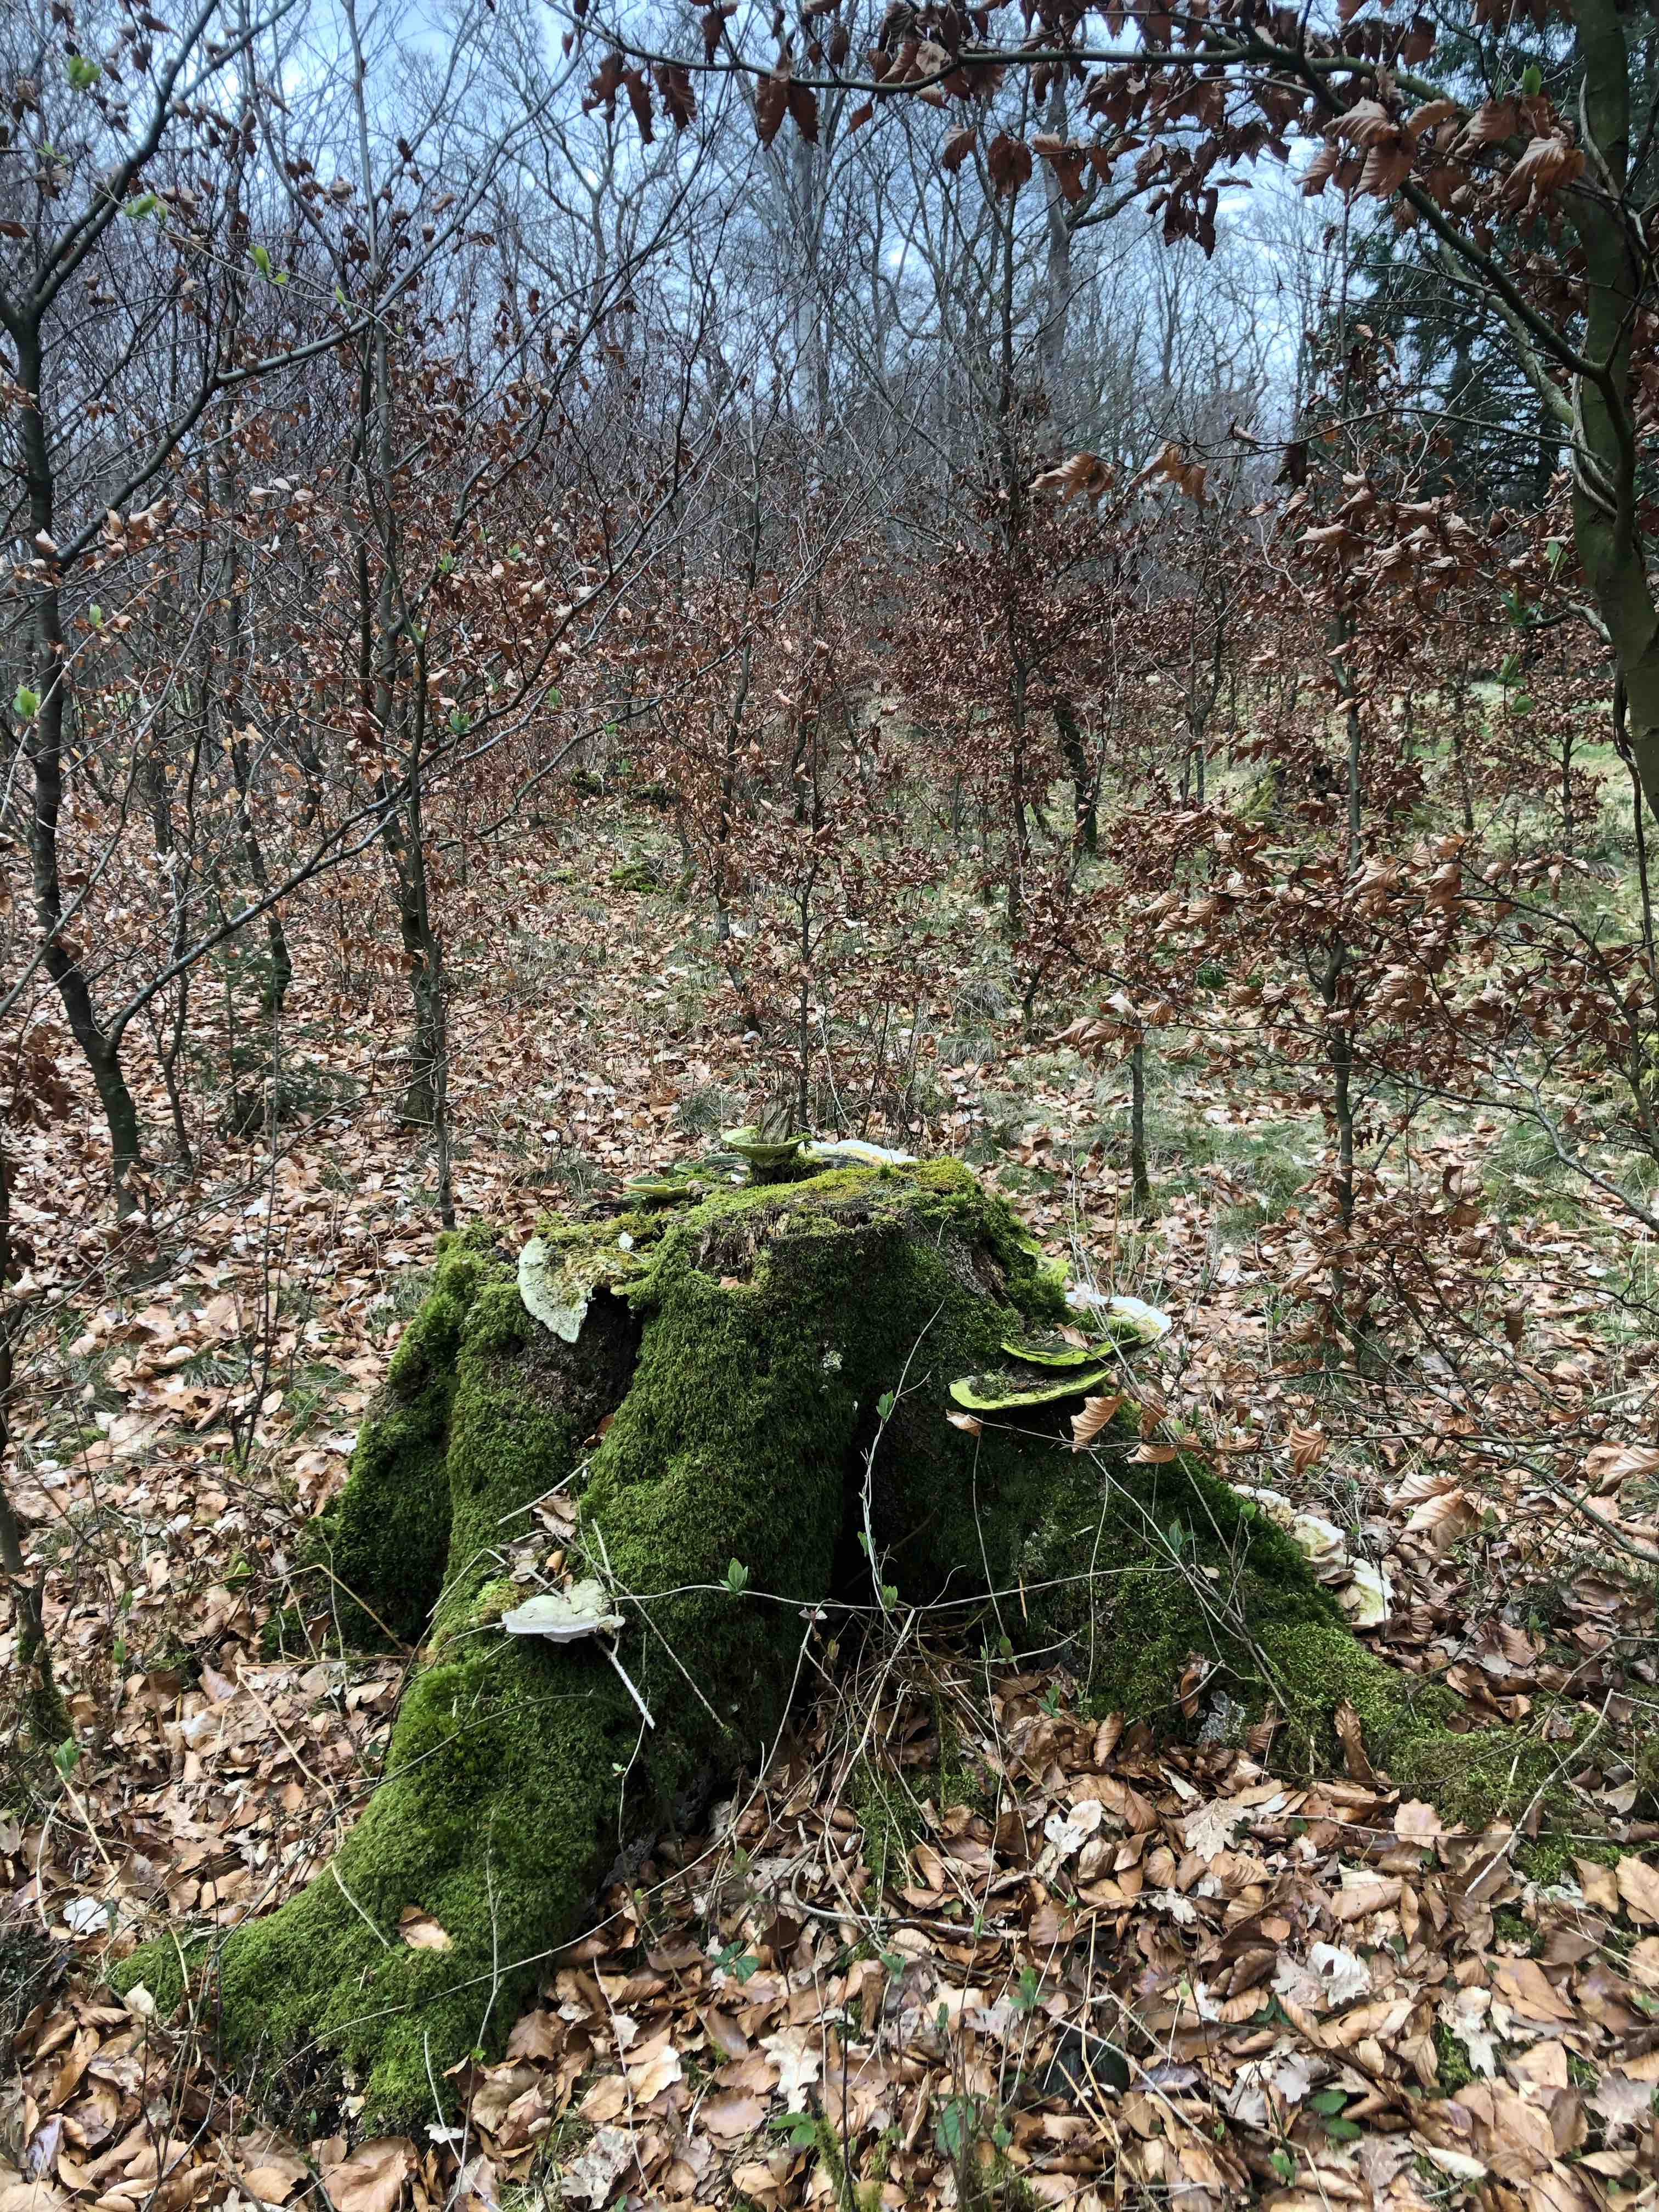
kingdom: Fungi
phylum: Basidiomycota
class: Agaricomycetes
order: Polyporales
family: Polyporaceae
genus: Ganoderma
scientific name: Ganoderma applanatum
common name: flad lakporesvamp
